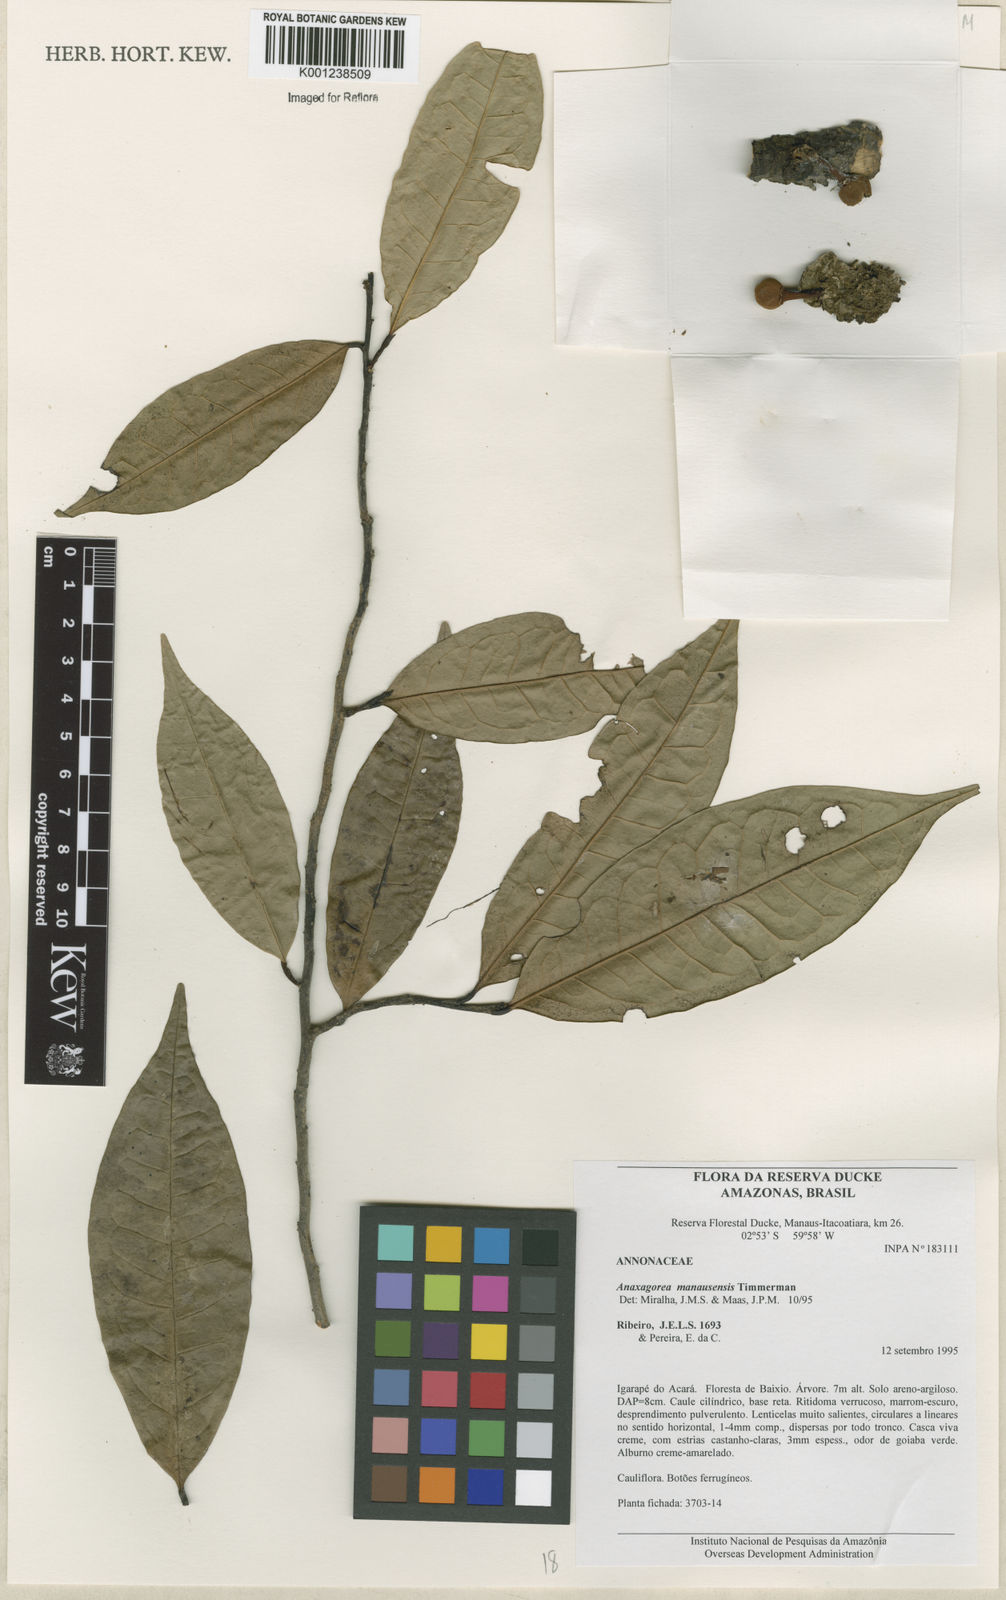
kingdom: Plantae
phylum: Tracheophyta
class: Magnoliopsida
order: Magnoliales
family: Annonaceae
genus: Anaxagorea
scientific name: Anaxagorea manausensis
